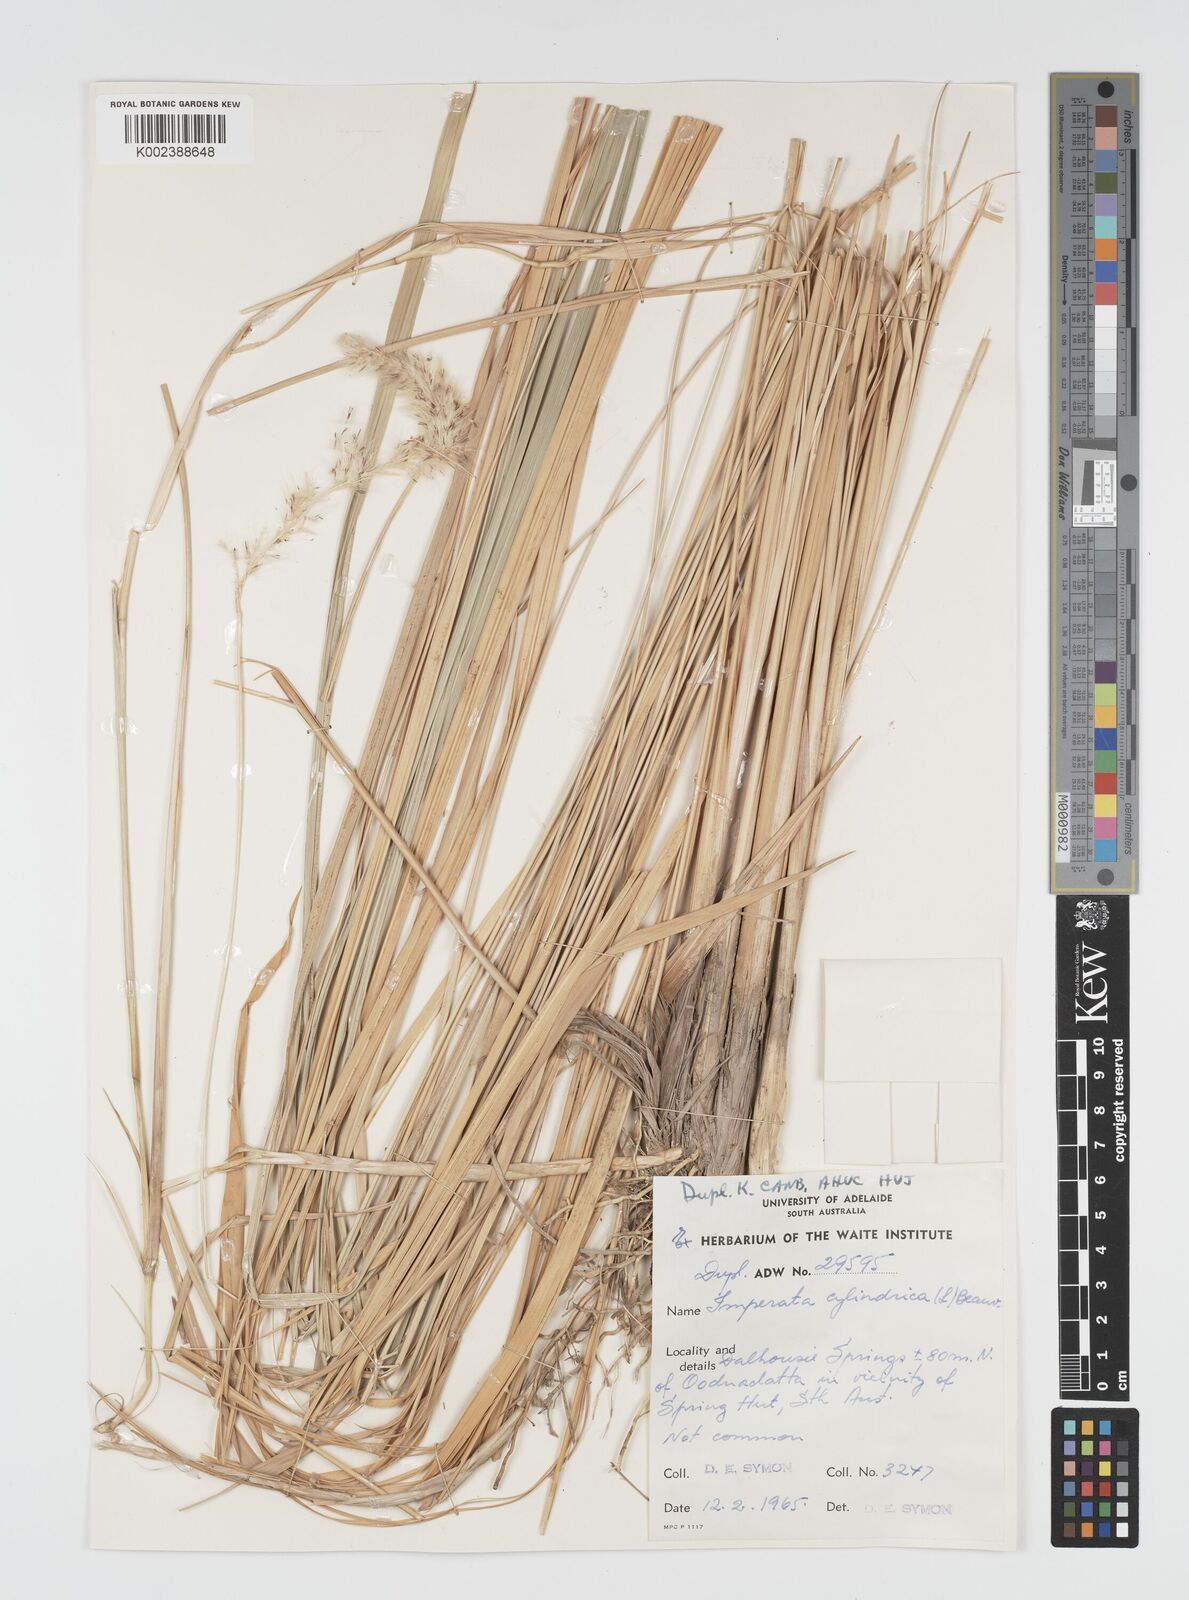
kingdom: Plantae
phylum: Tracheophyta
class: Liliopsida
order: Poales
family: Poaceae
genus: Imperata
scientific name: Imperata cylindrica
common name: Cogongrass
